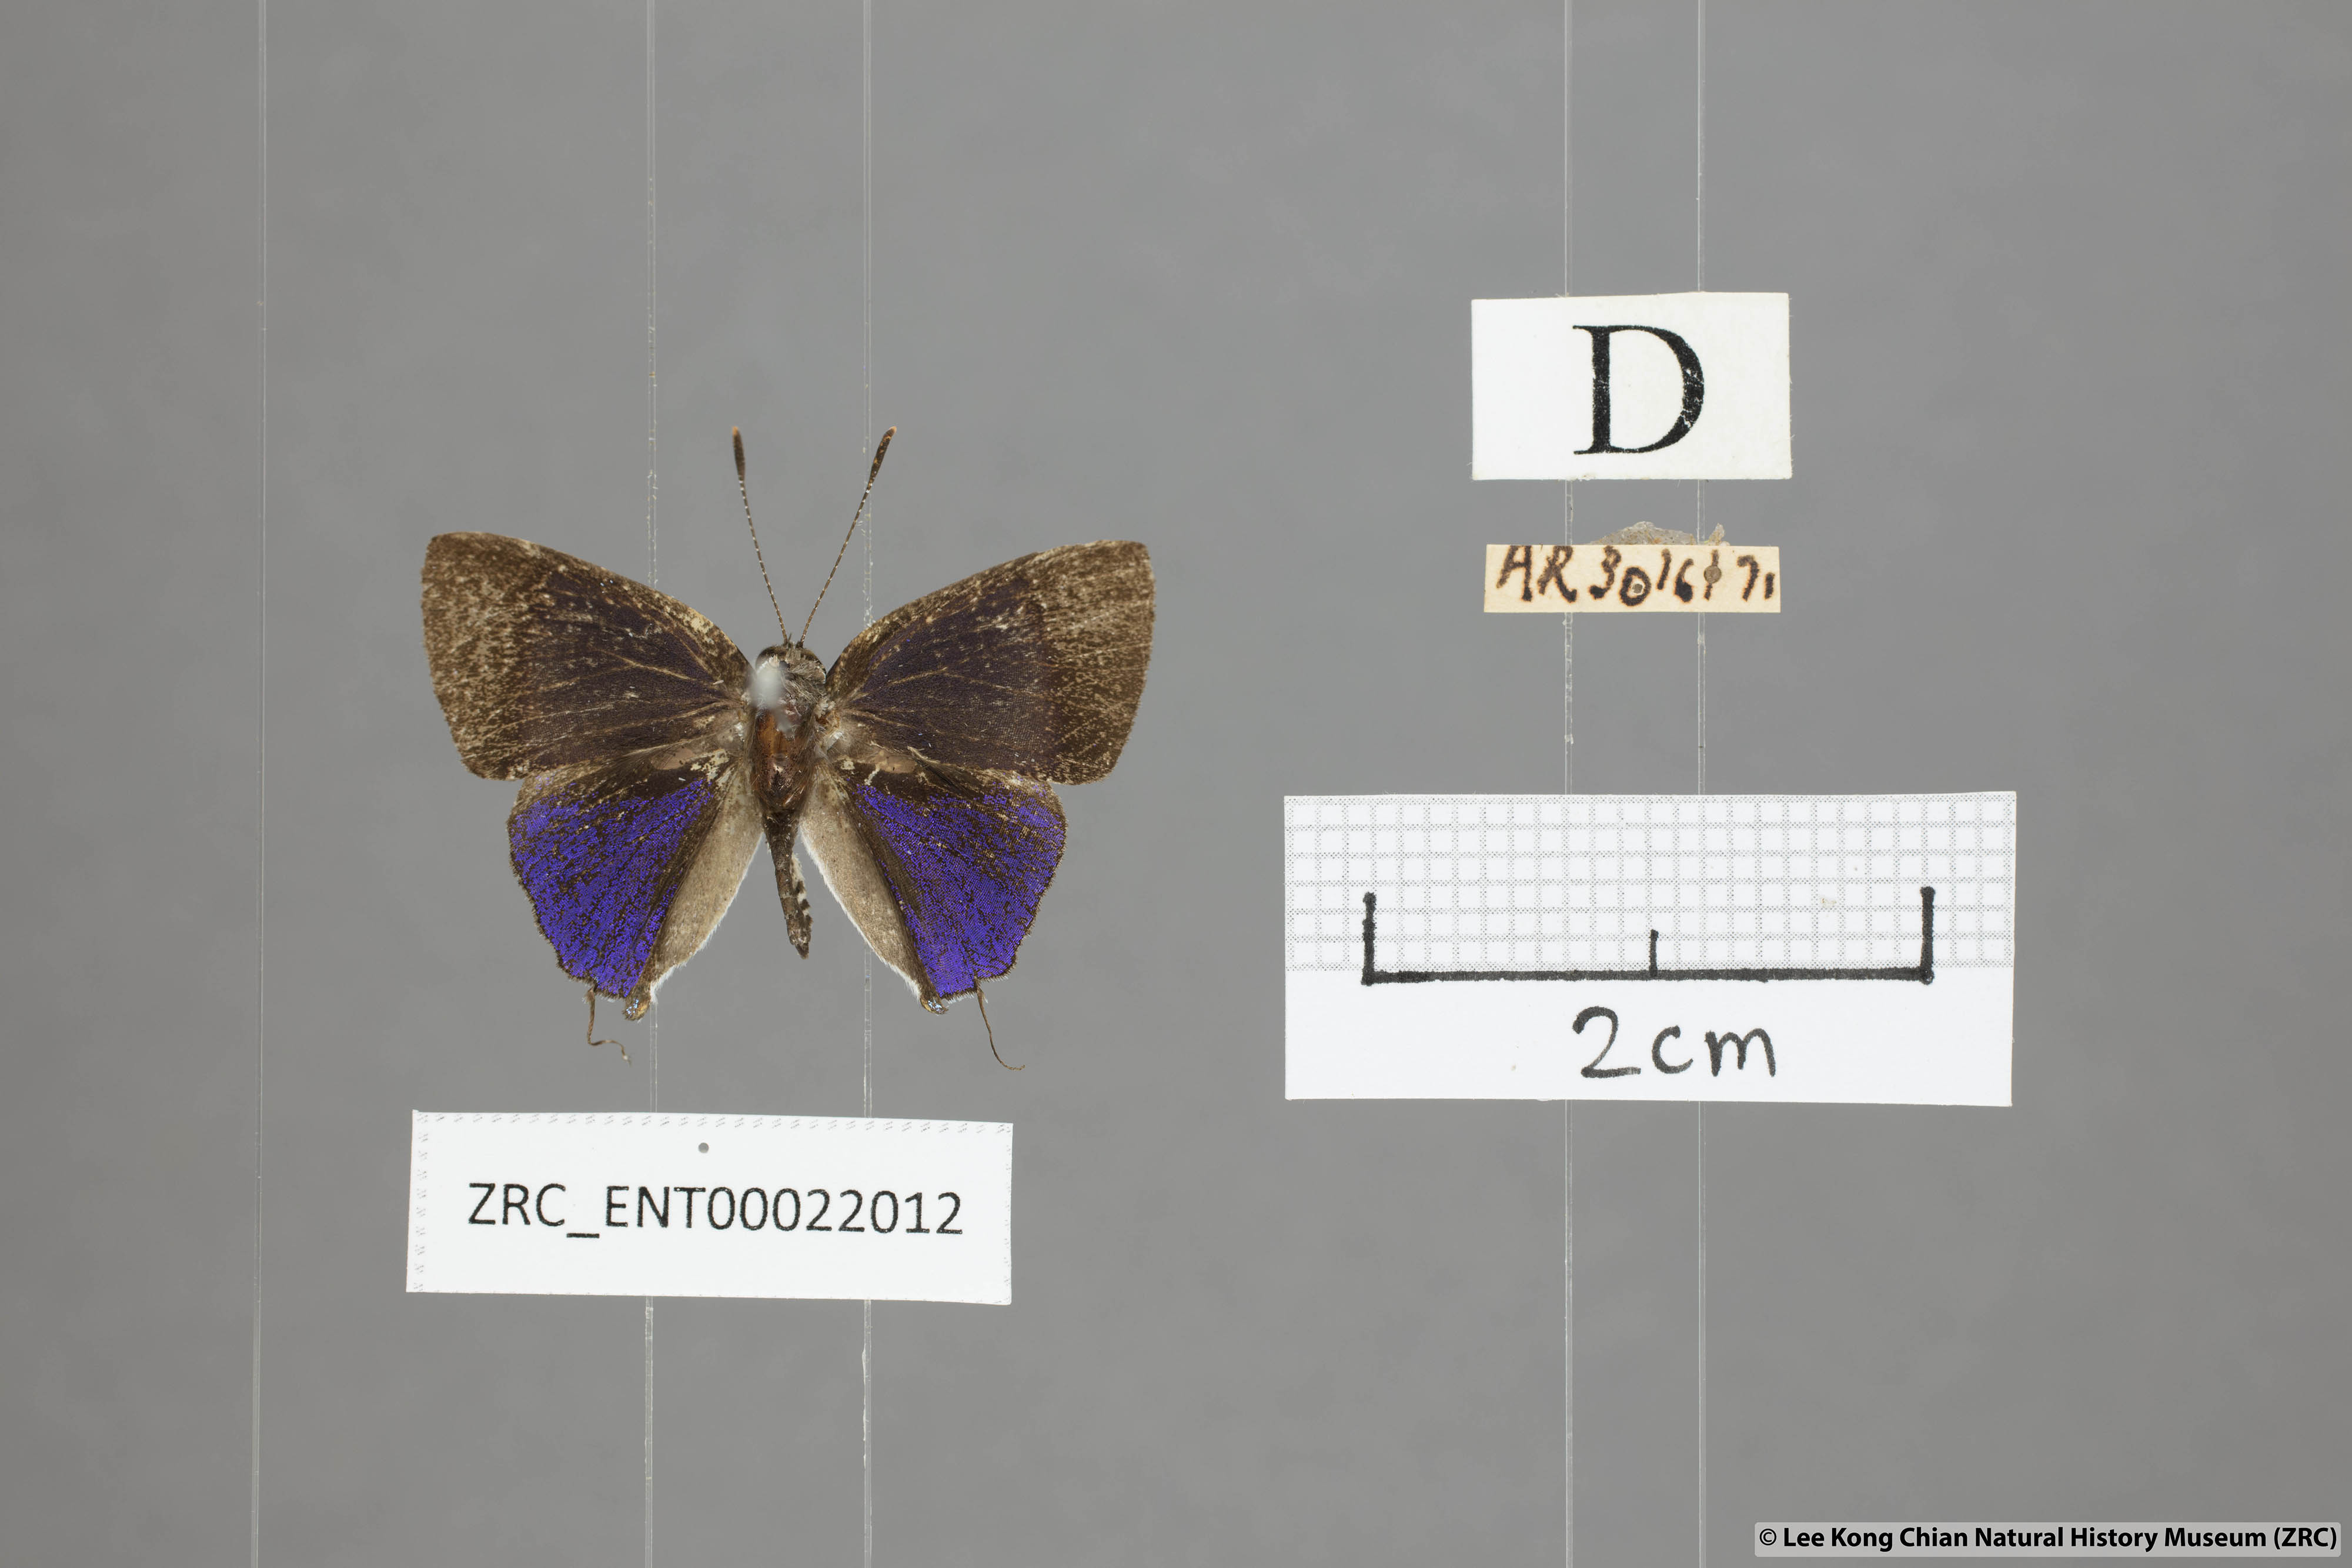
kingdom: Animalia
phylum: Arthropoda
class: Insecta
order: Lepidoptera
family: Lycaenidae
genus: Sinthusa
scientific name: Sinthusa nasaka
